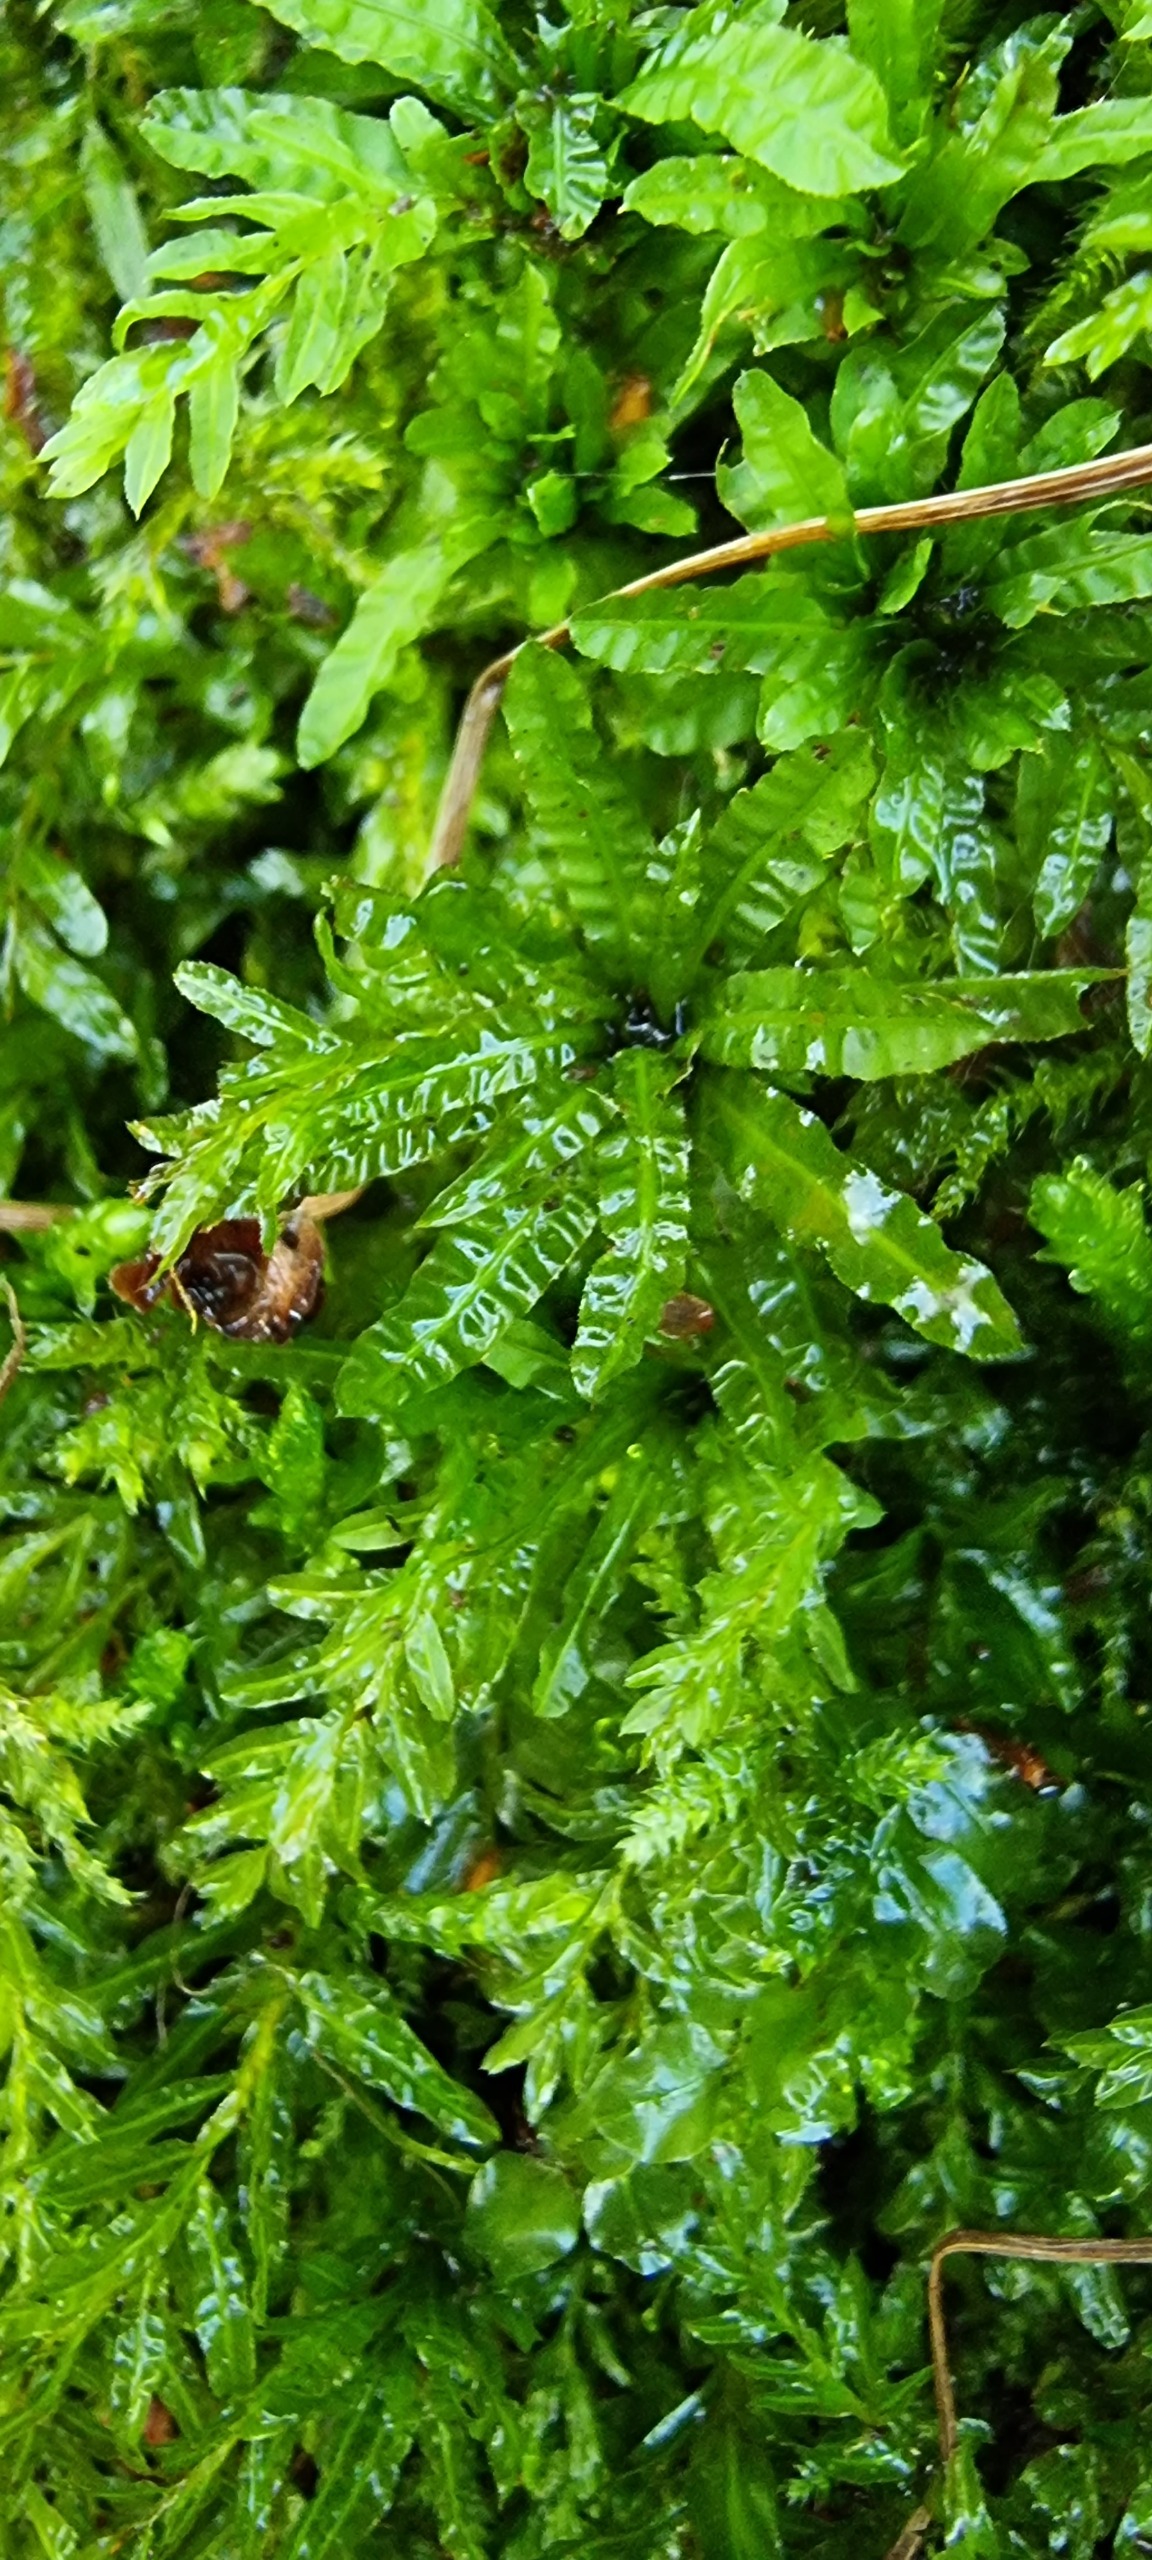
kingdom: Plantae
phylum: Bryophyta
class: Bryopsida
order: Bryales
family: Mniaceae
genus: Plagiomnium
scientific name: Plagiomnium undulatum
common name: Bølget krybstjerne
